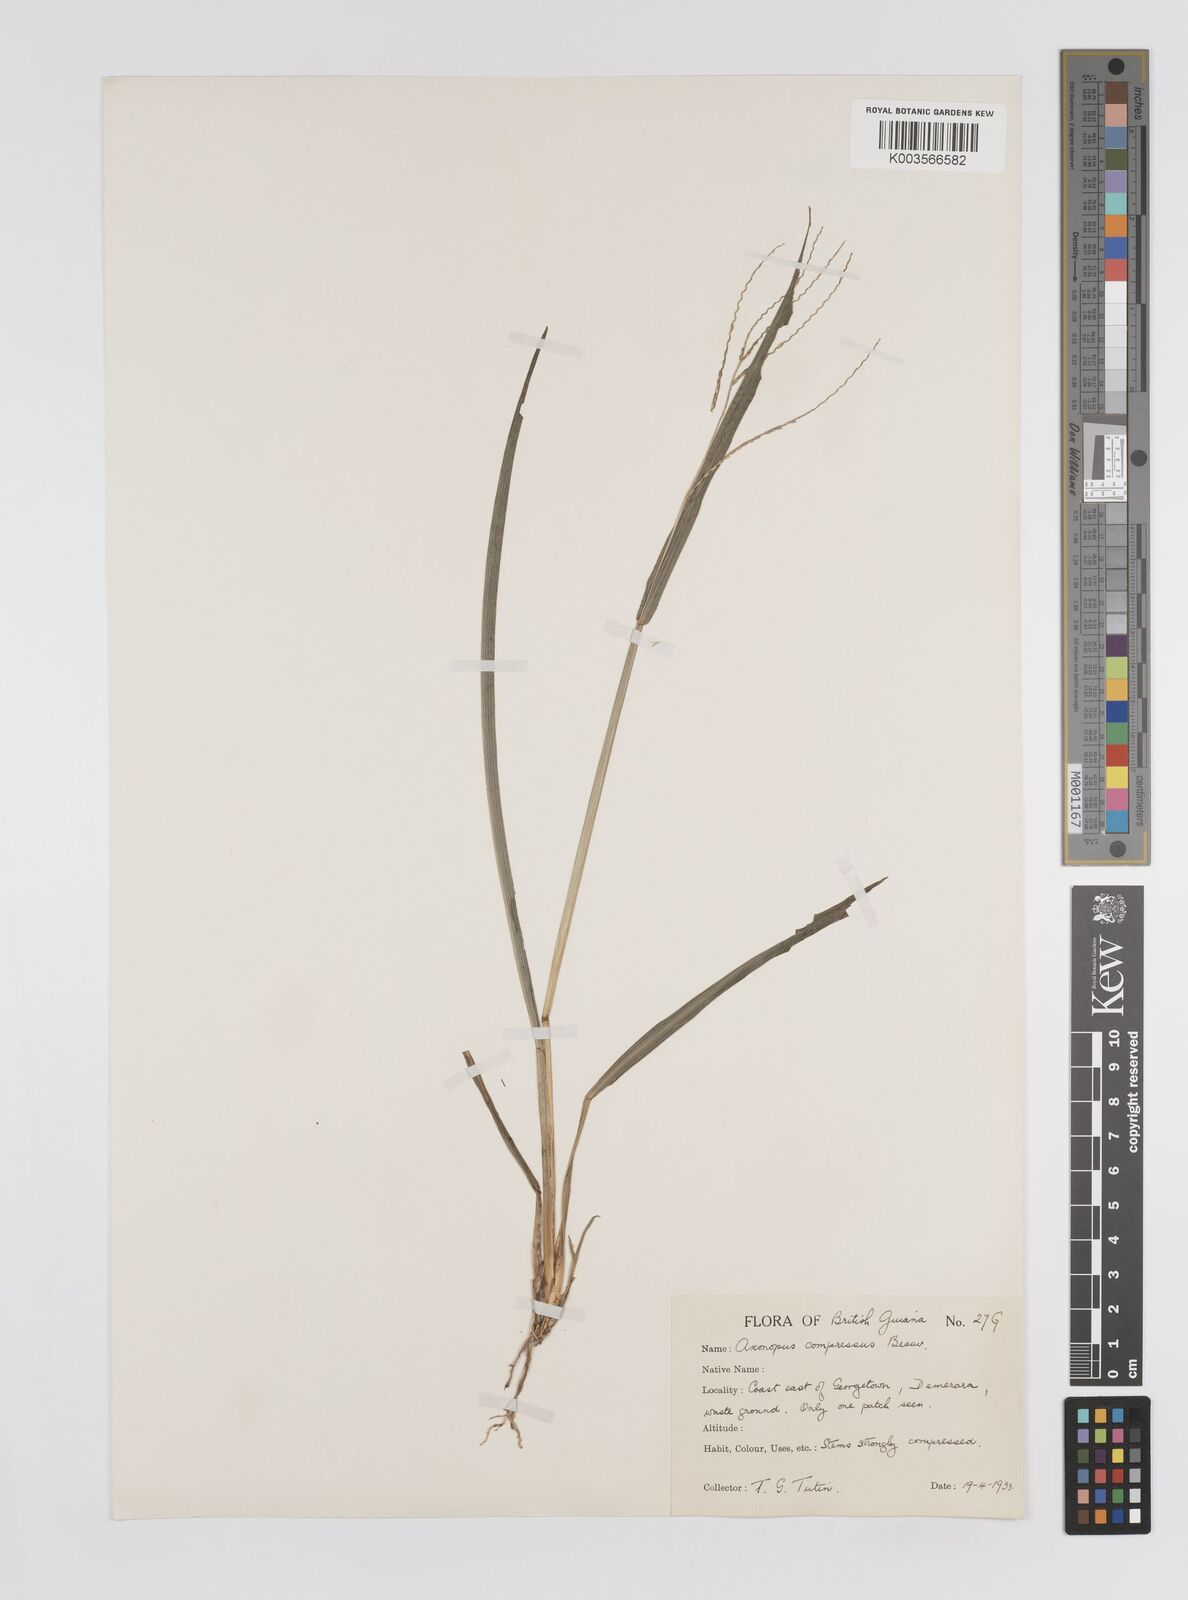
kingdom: Plantae
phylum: Tracheophyta
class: Liliopsida
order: Poales
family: Poaceae
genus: Axonopus
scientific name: Axonopus compressus
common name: American carpet grass
